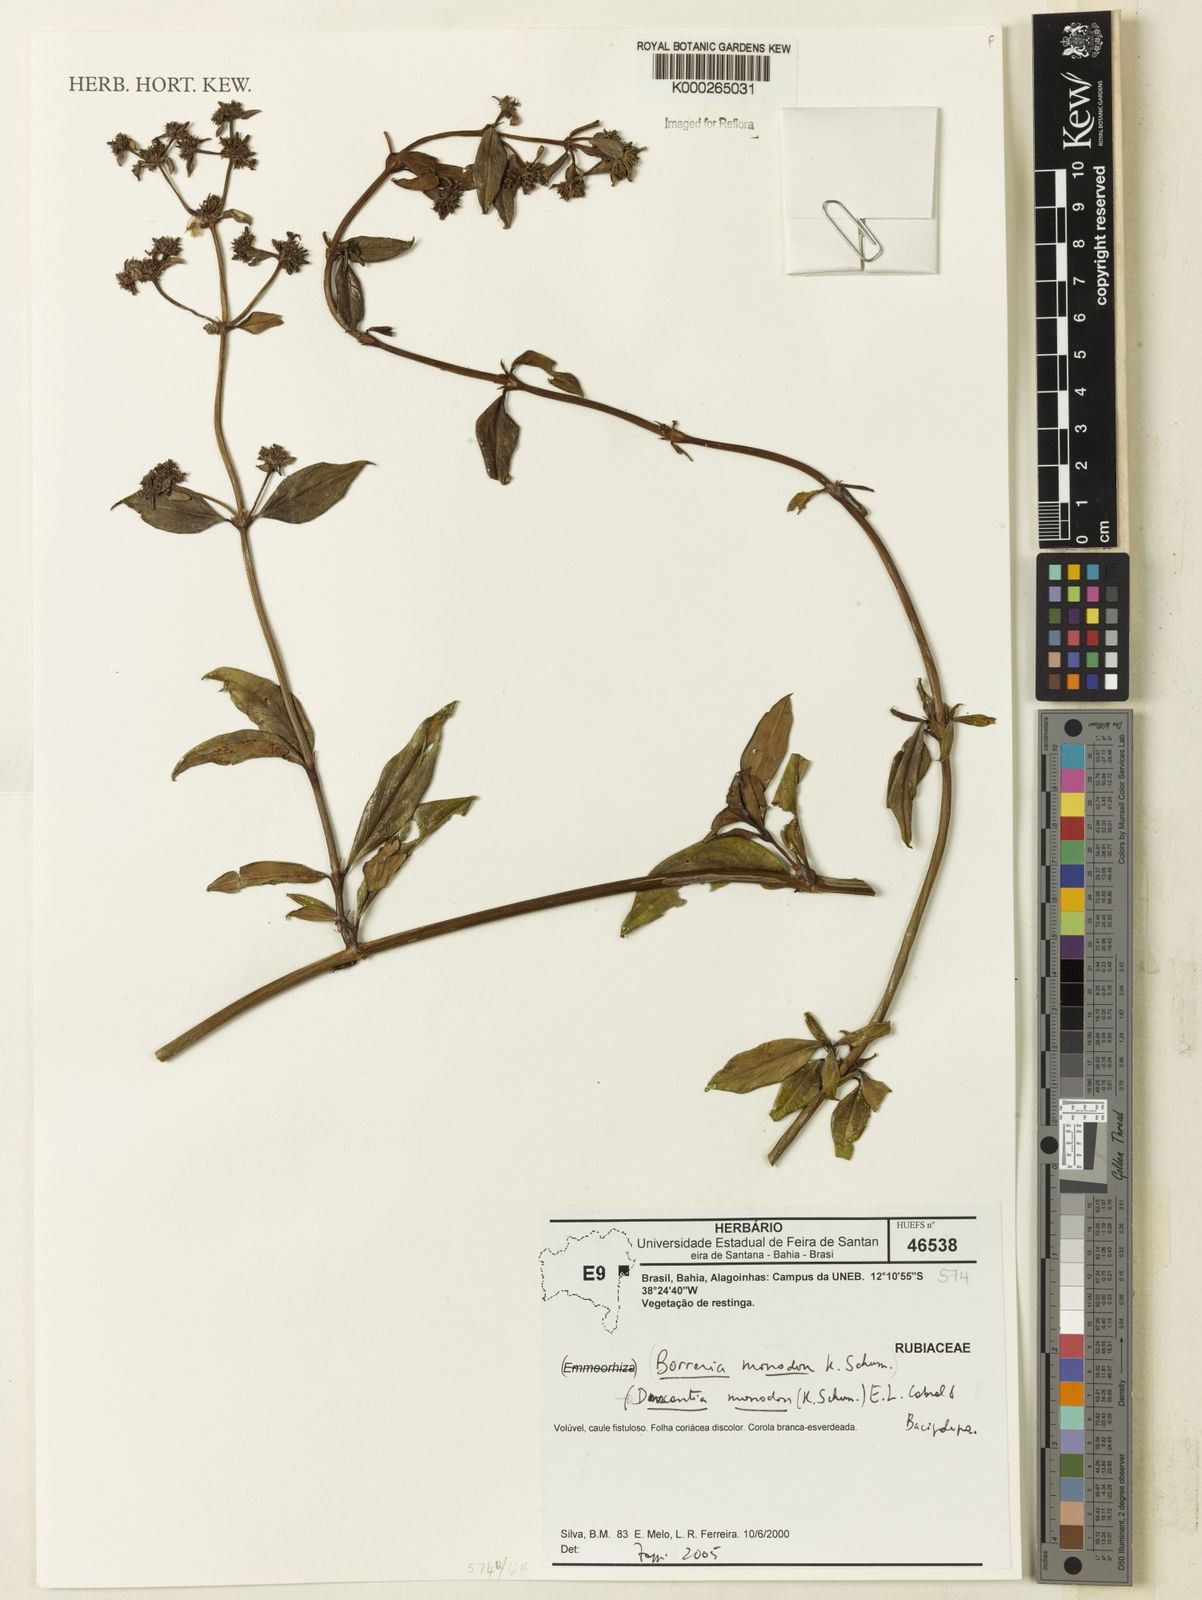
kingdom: Plantae
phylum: Tracheophyta
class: Magnoliopsida
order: Gentianales
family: Rubiaceae
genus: Denscantia
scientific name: Denscantia monodon
